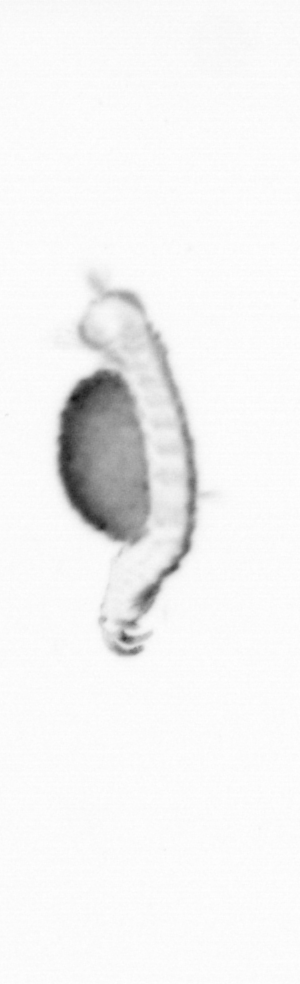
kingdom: Animalia
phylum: Annelida
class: Polychaeta
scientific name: Polychaeta
